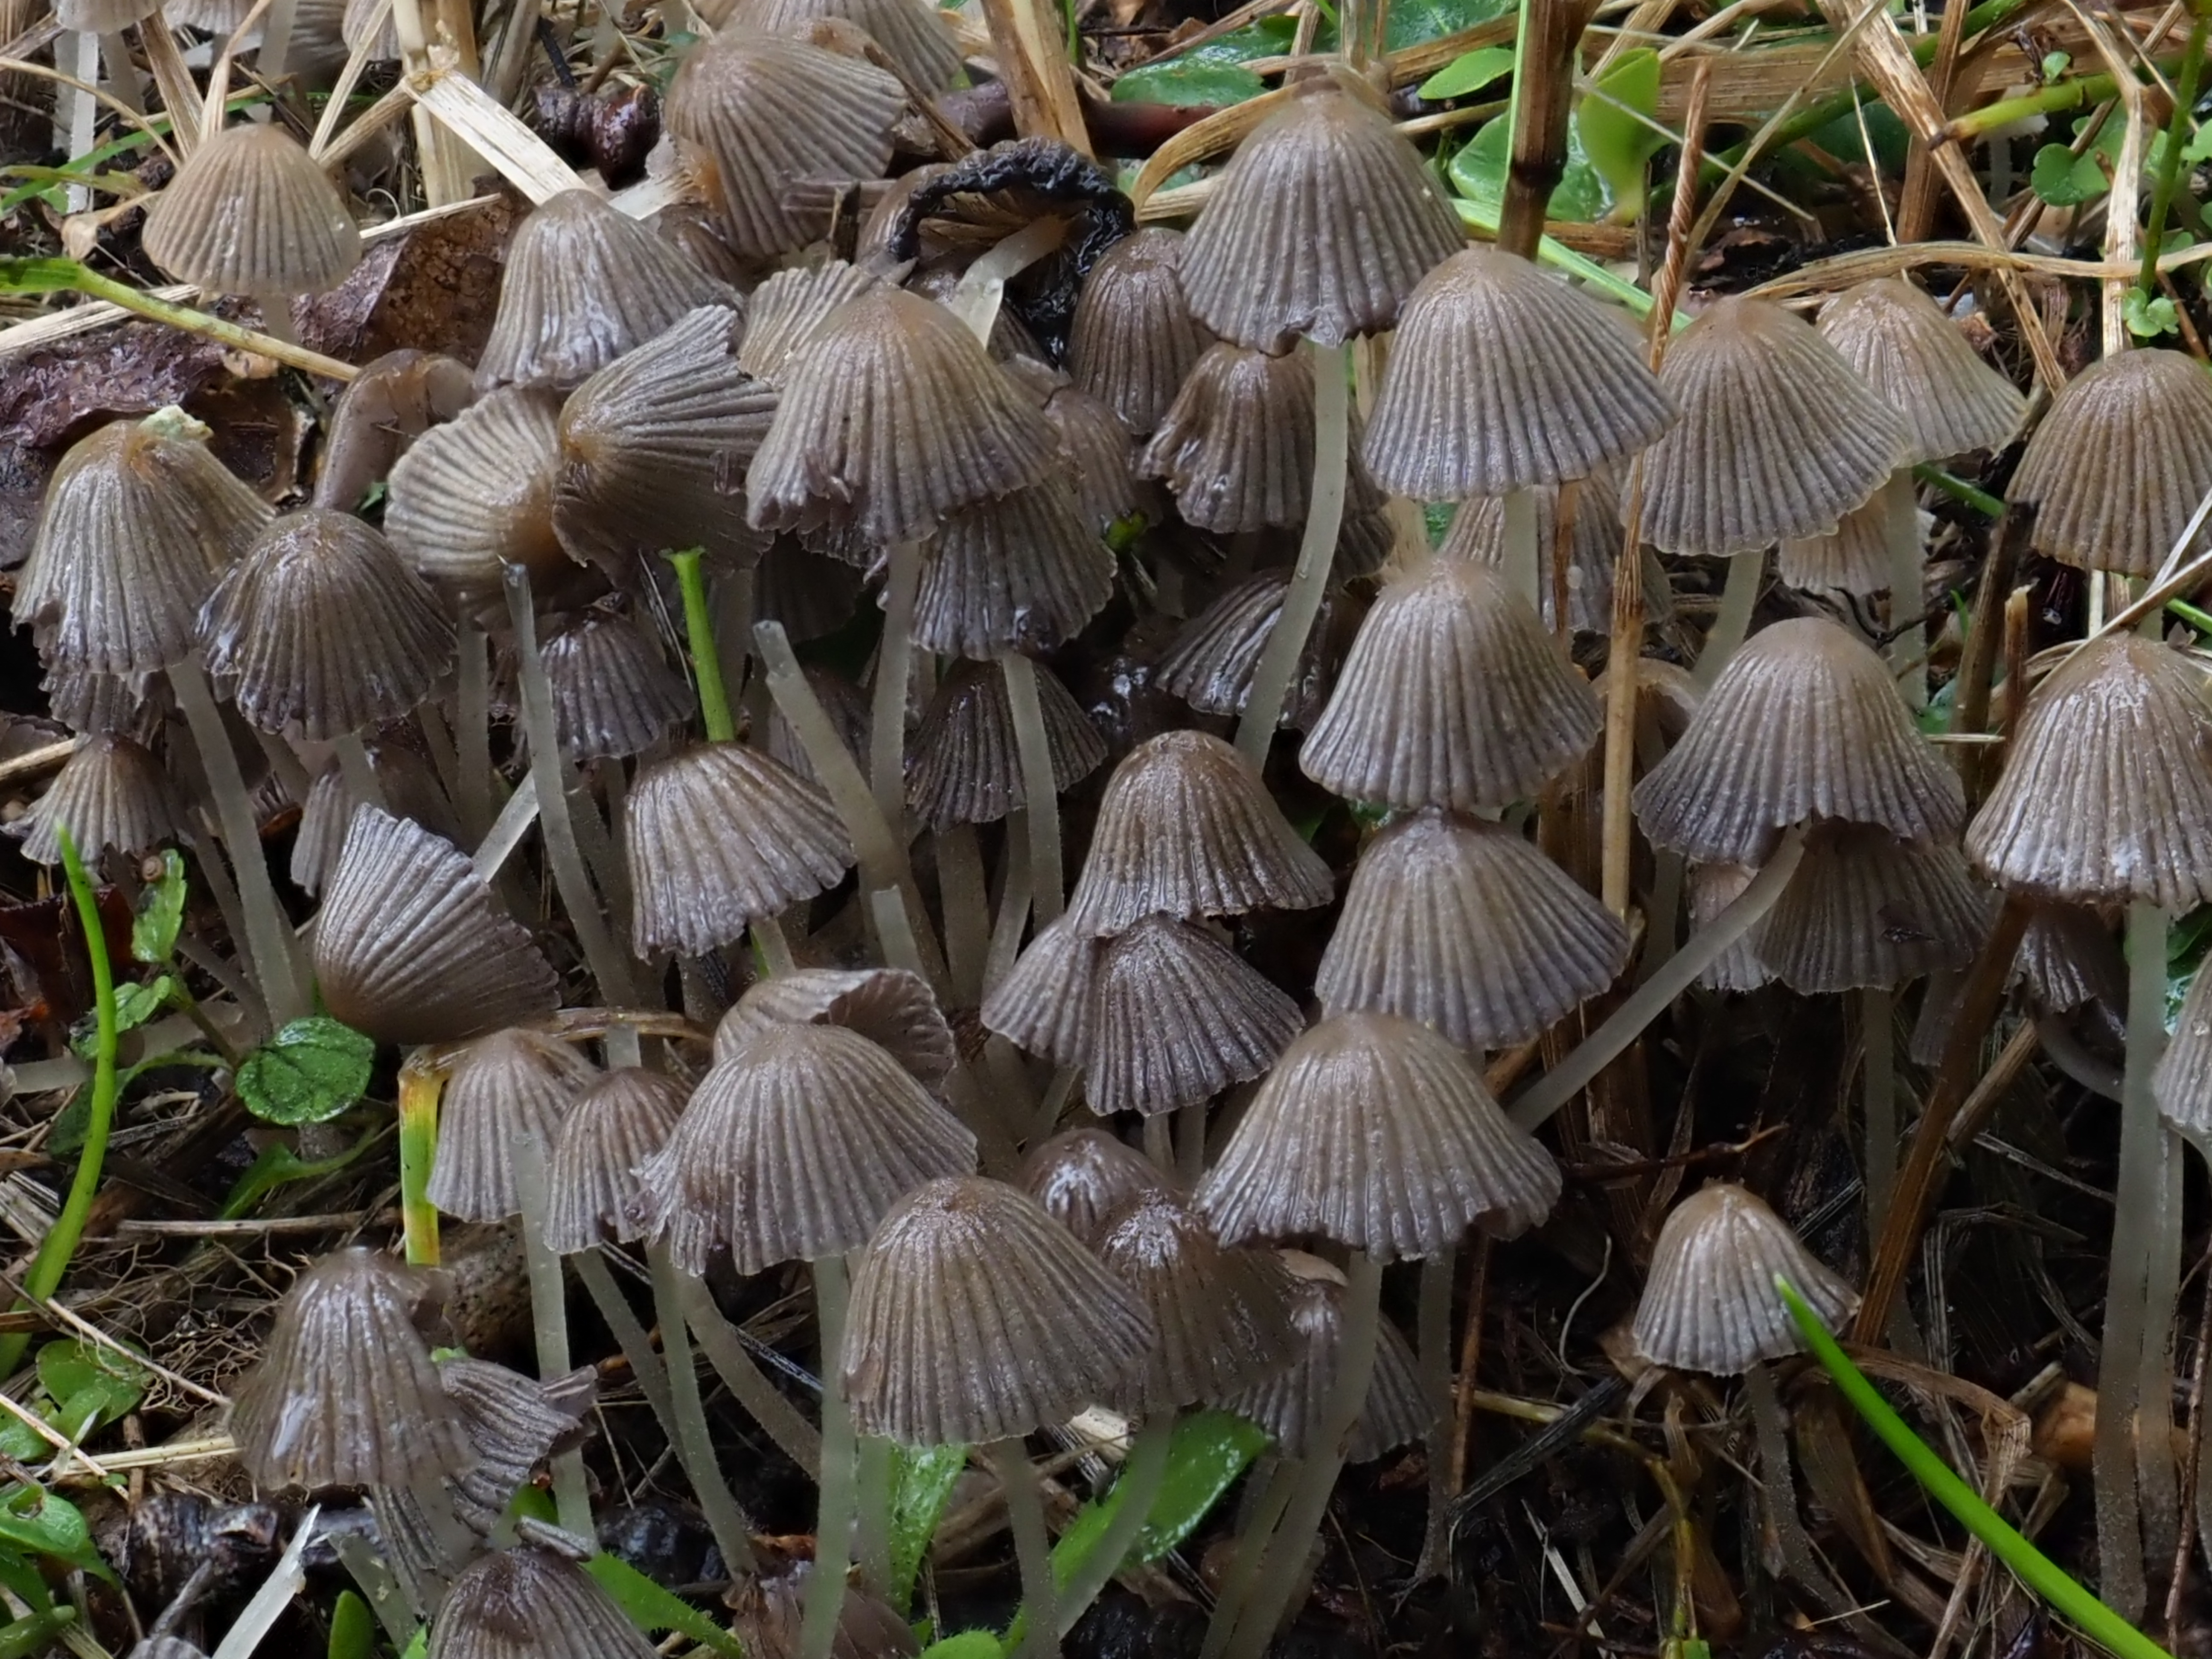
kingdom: Fungi
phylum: Basidiomycota
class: Agaricomycetes
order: Agaricales
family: Psathyrellaceae
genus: Coprinellus
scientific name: Coprinellus disseminatus
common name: Fairies' bonnets
